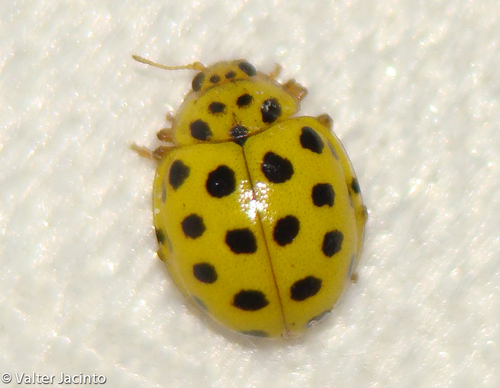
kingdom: Animalia
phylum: Arthropoda
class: Insecta
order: Coleoptera
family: Coccinellidae
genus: Psyllobora
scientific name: Psyllobora vigintiduopunctata
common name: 22-spot ladybird
